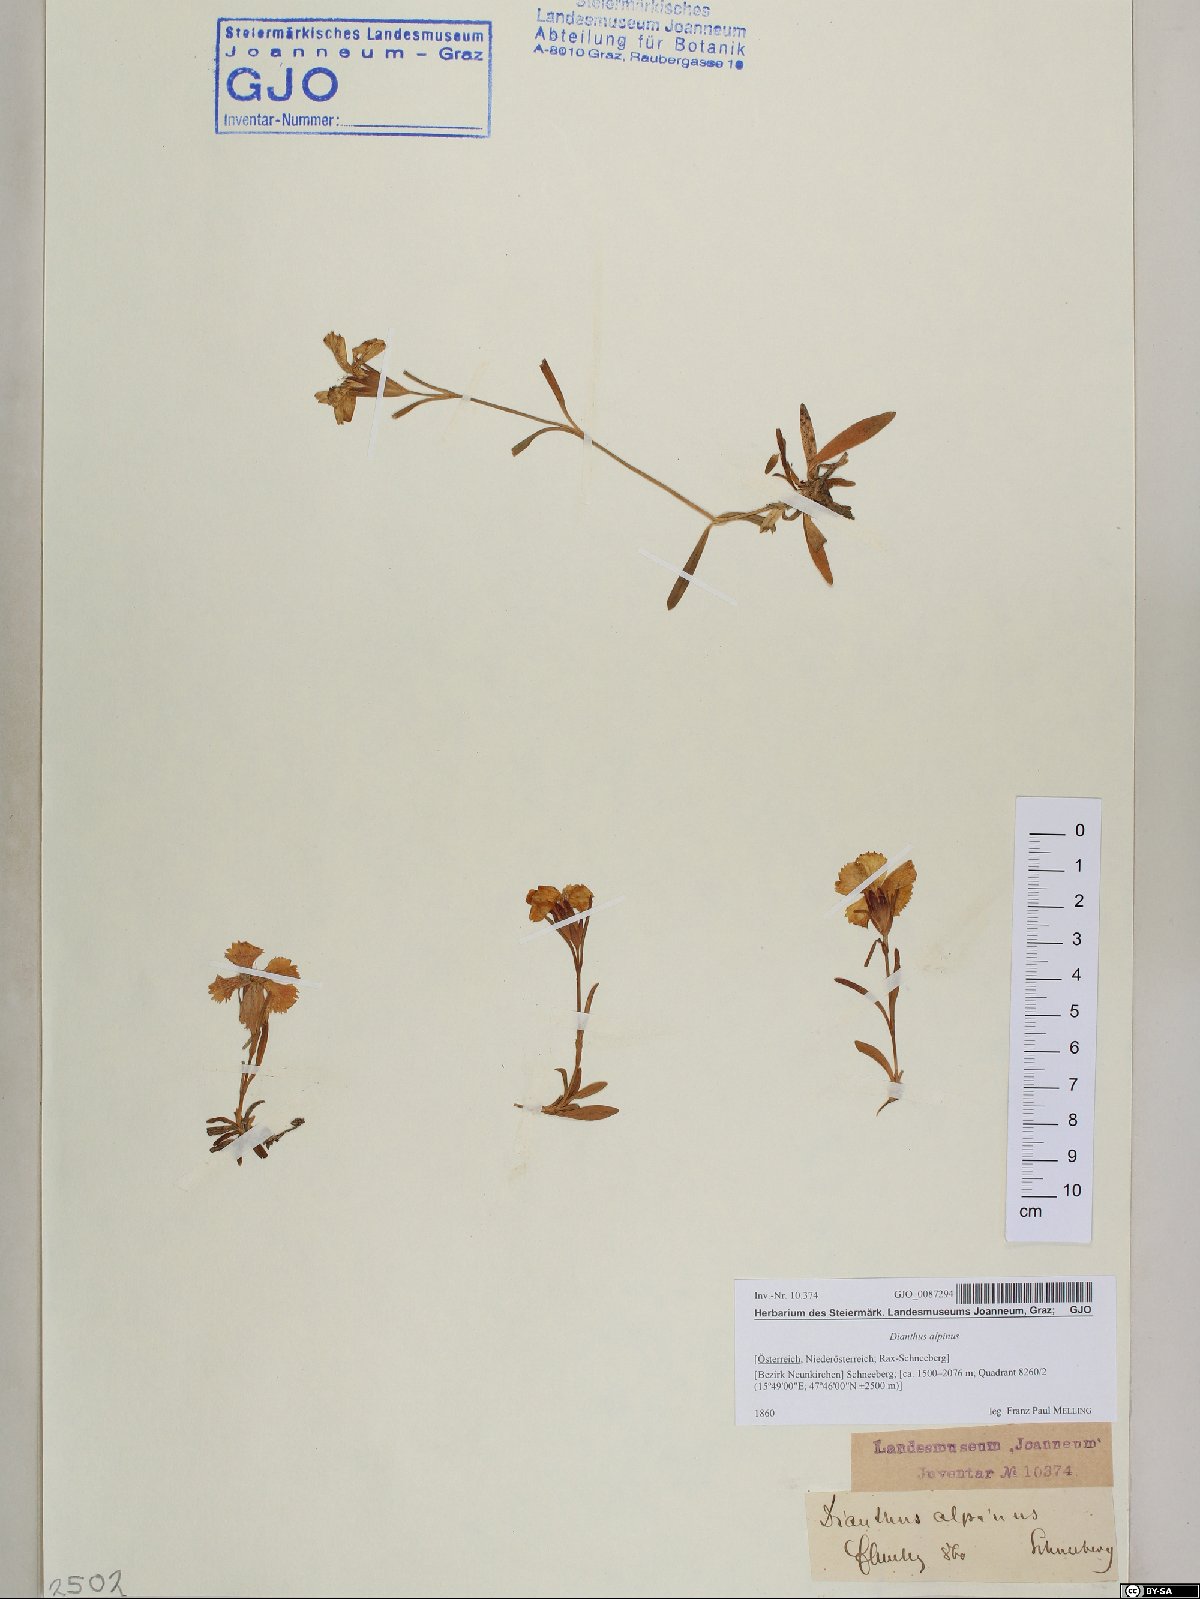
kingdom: Plantae
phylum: Tracheophyta
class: Magnoliopsida
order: Caryophyllales
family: Caryophyllaceae
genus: Dianthus
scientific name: Dianthus alpinus
